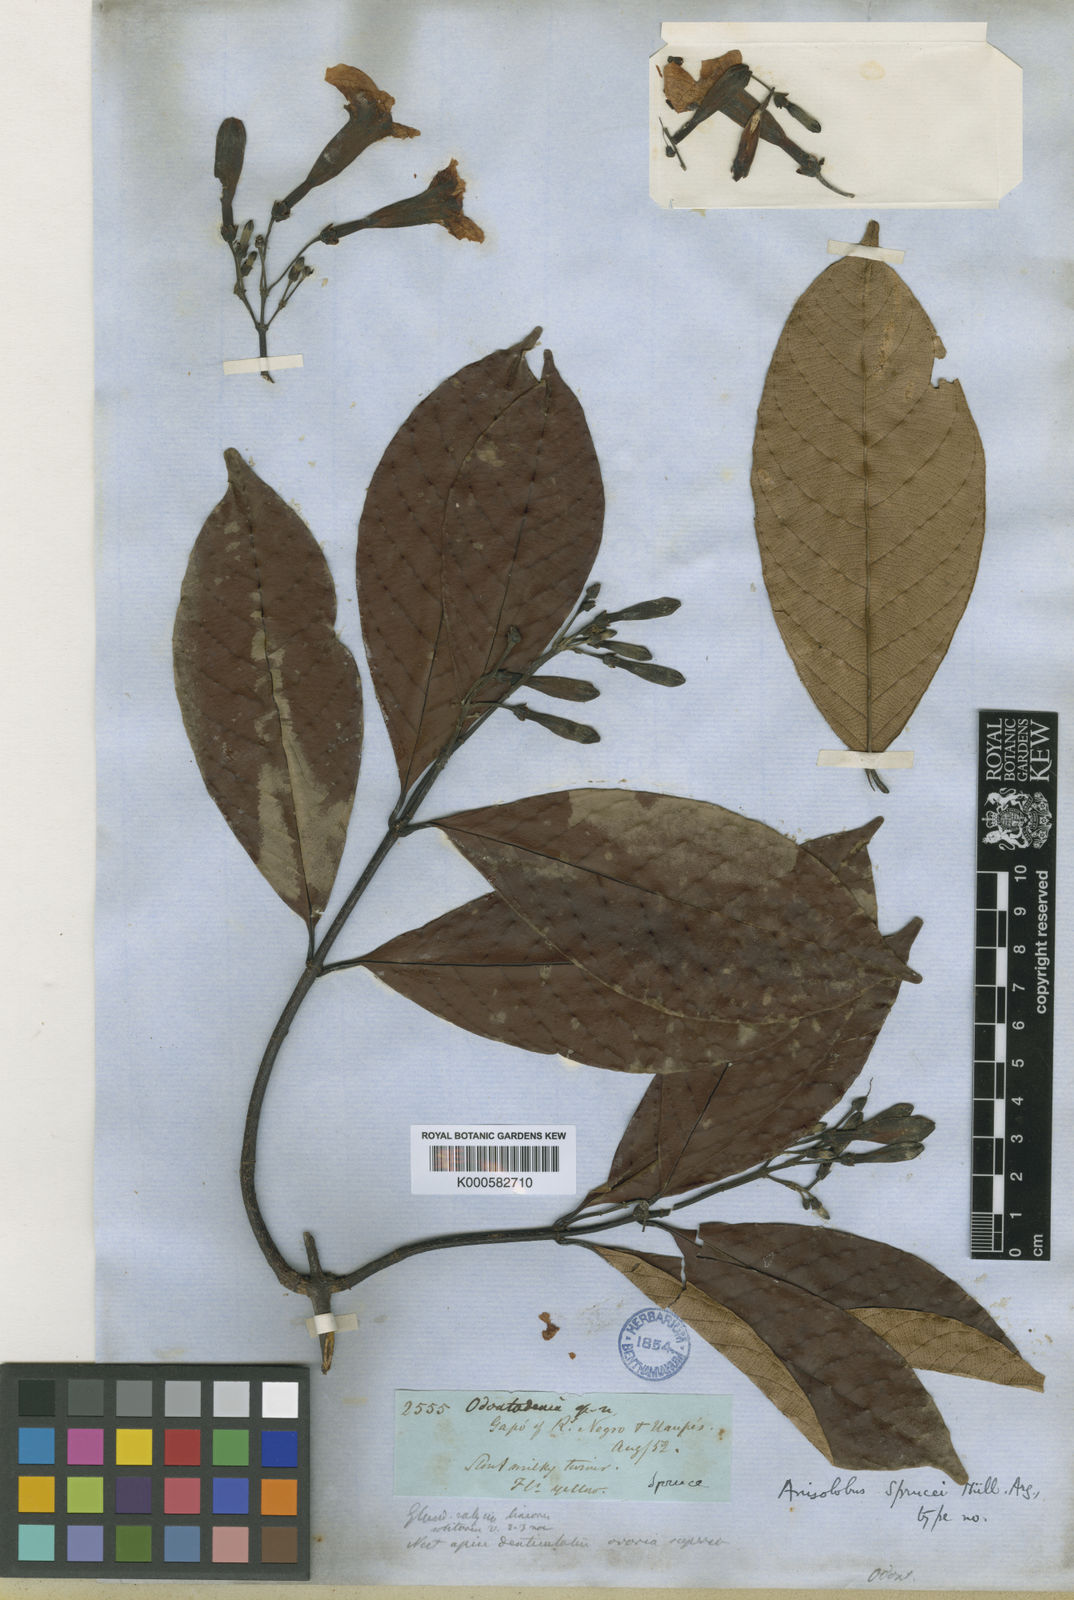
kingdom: Plantae
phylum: Tracheophyta
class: Magnoliopsida
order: Gentianales
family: Apocynaceae
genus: Odontadenia
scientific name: Odontadenia puncticulosa
